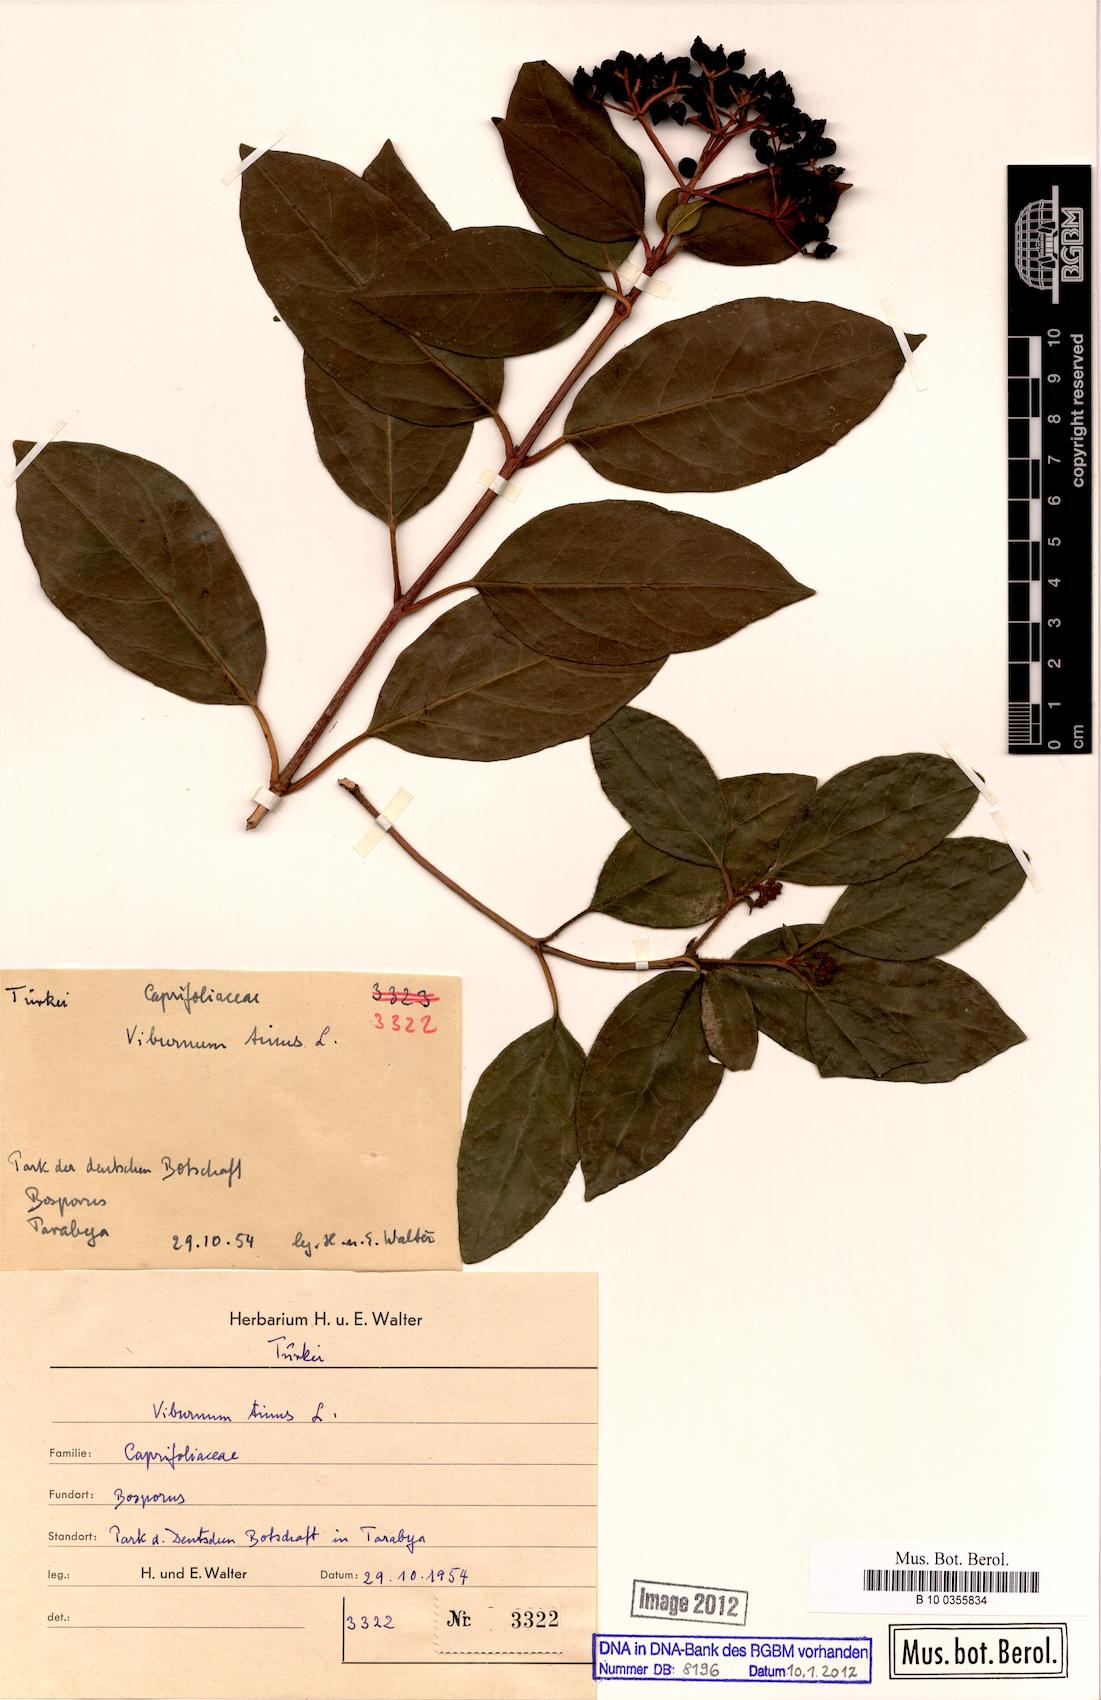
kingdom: Plantae
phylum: Tracheophyta
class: Magnoliopsida
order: Dipsacales
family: Viburnaceae
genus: Viburnum
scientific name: Viburnum tinus
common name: Laurustinus
